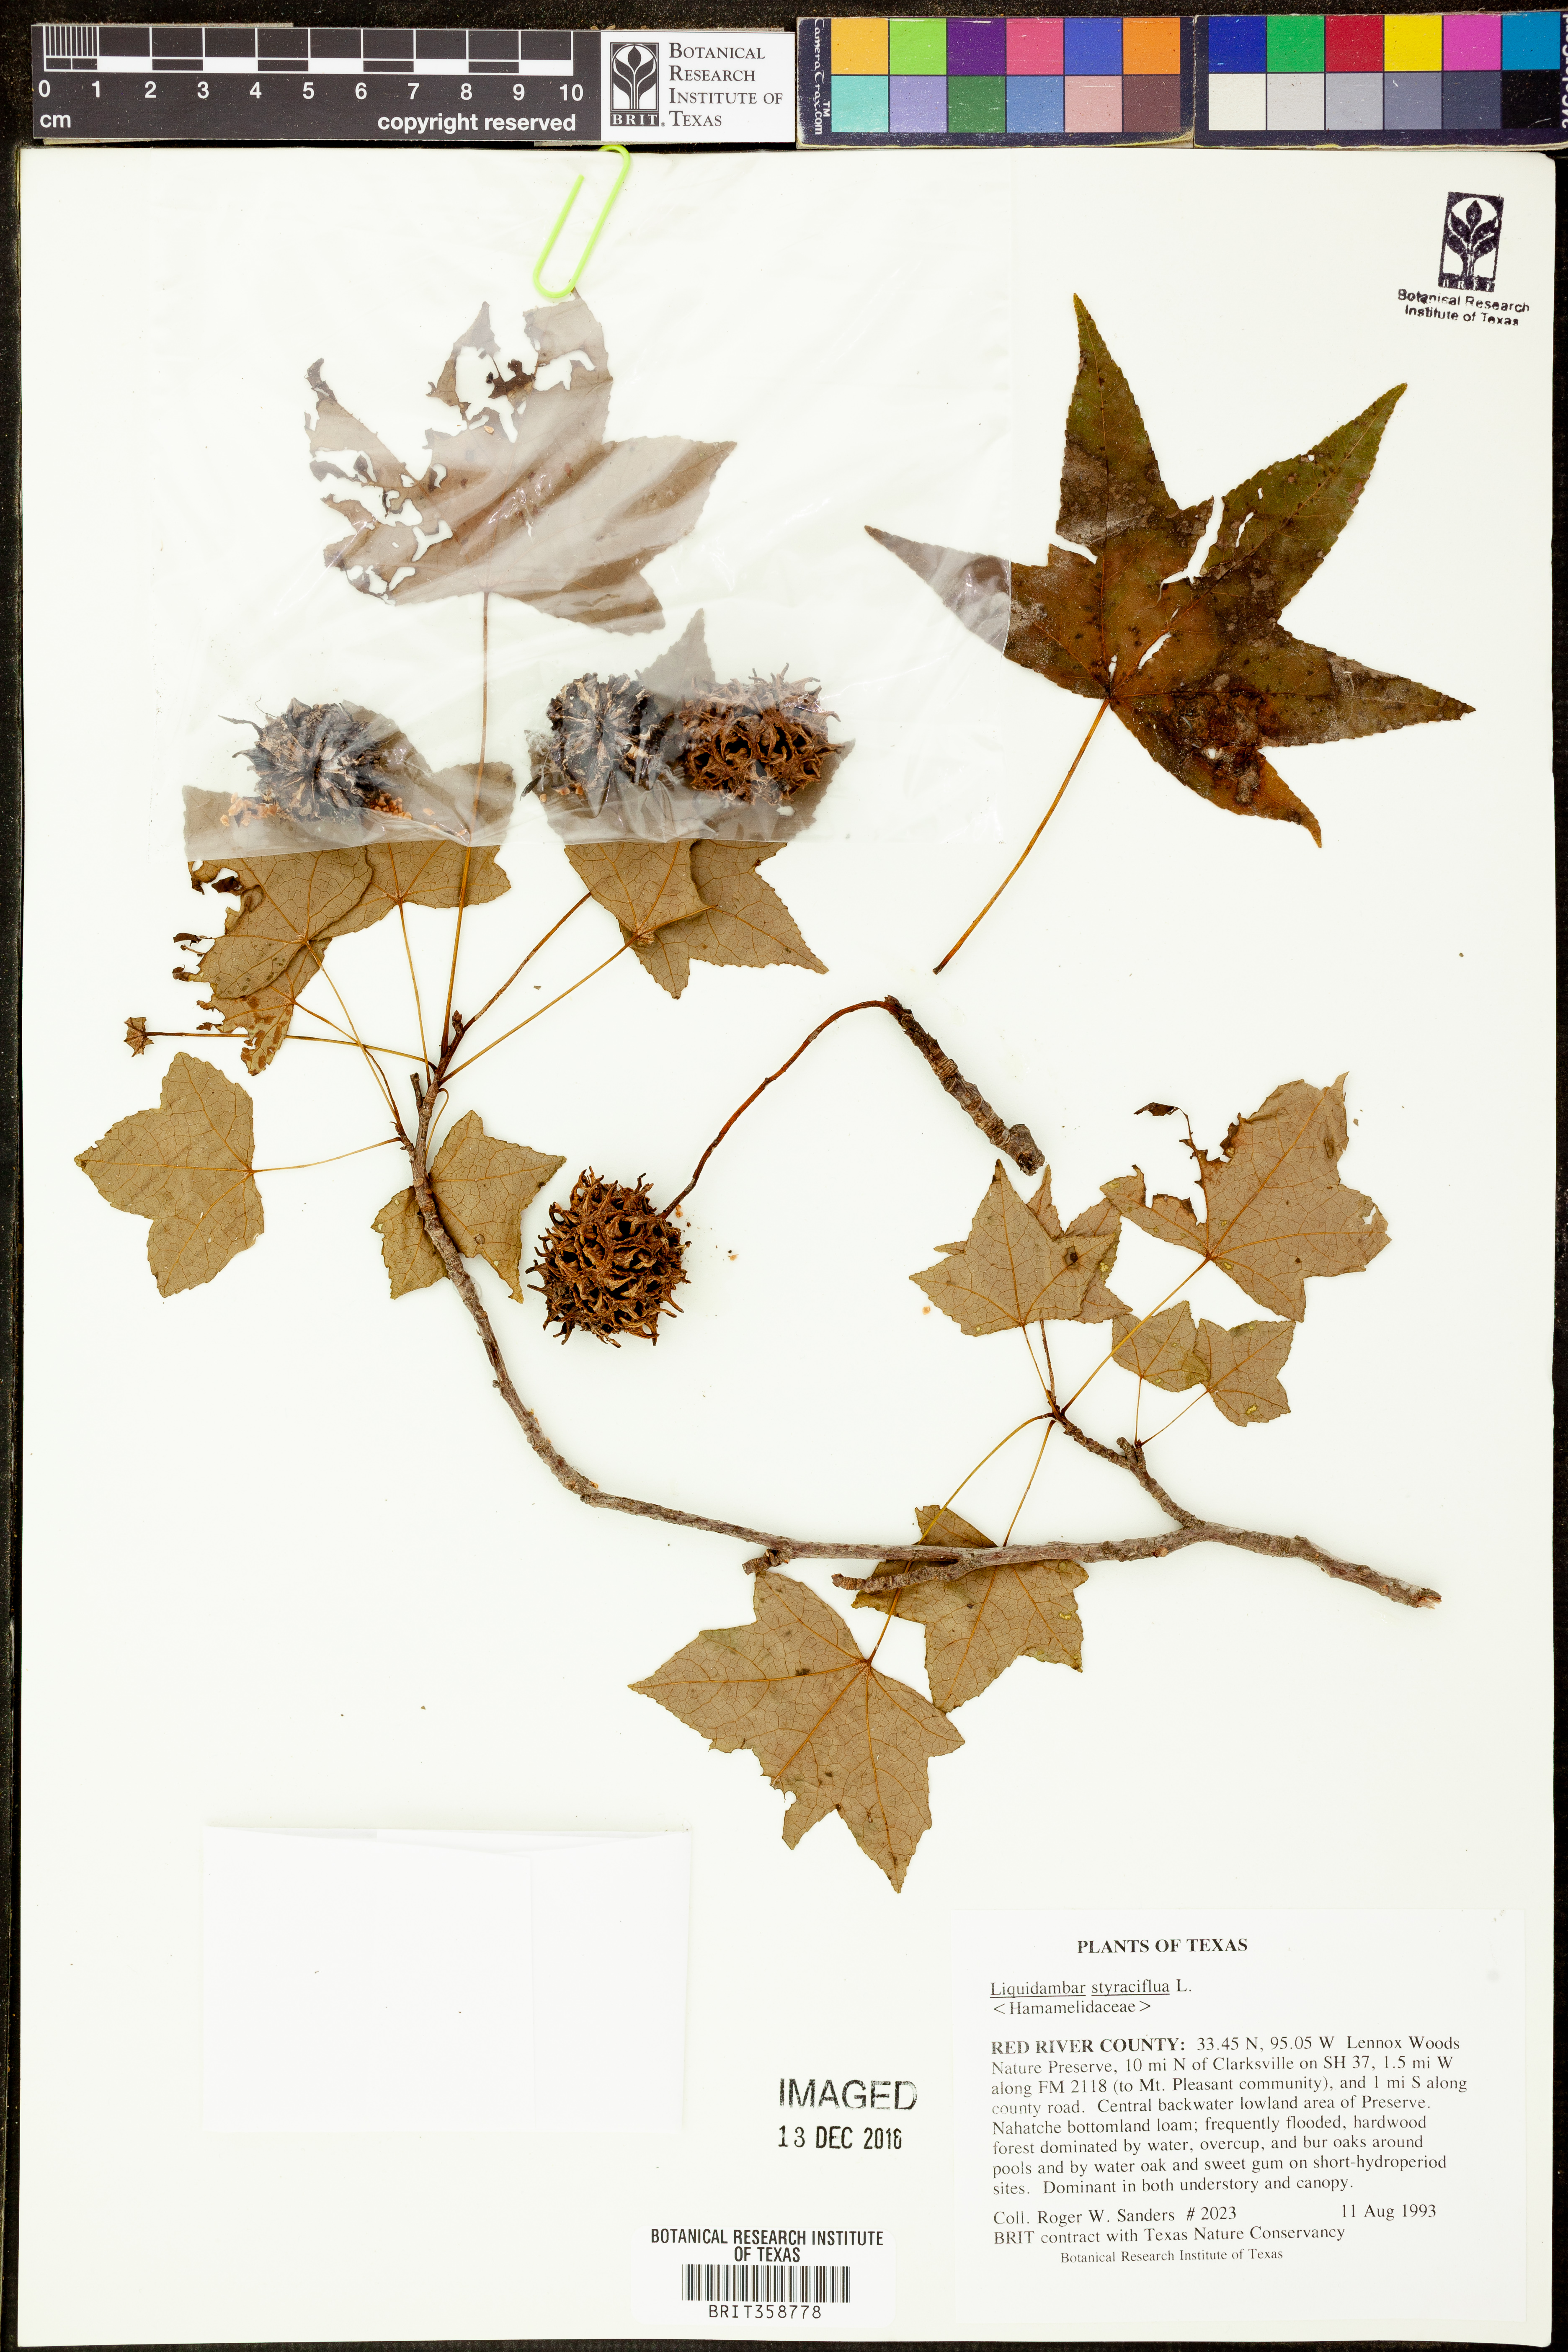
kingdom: Plantae
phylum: Tracheophyta
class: Magnoliopsida
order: Saxifragales
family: Altingiaceae
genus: Liquidambar
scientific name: Liquidambar styraciflua
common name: Sweet gum
